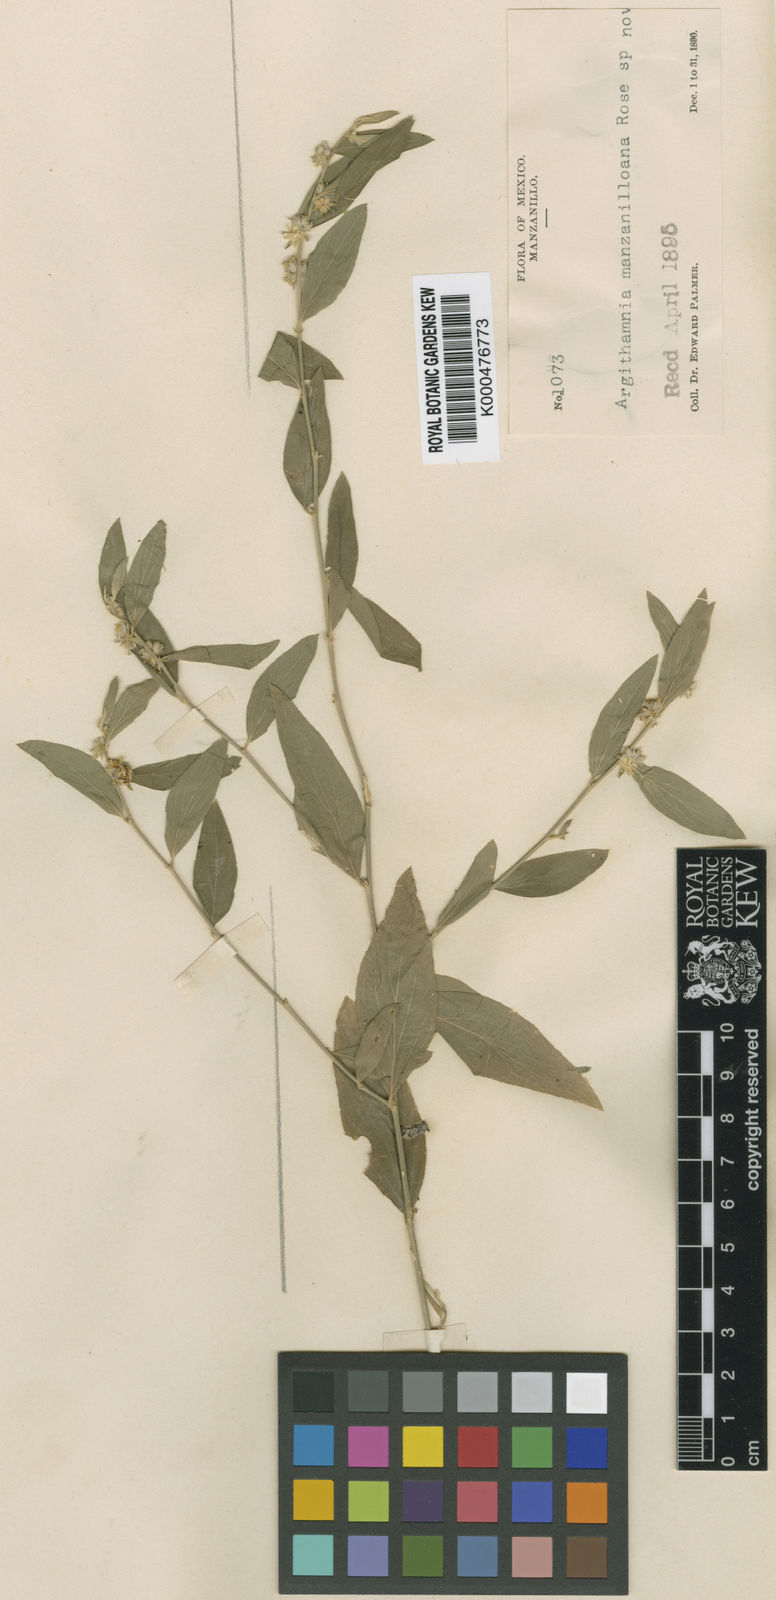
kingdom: Plantae
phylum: Tracheophyta
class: Magnoliopsida
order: Malpighiales
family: Euphorbiaceae
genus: Ditaxis
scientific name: Ditaxis manzanilloana
